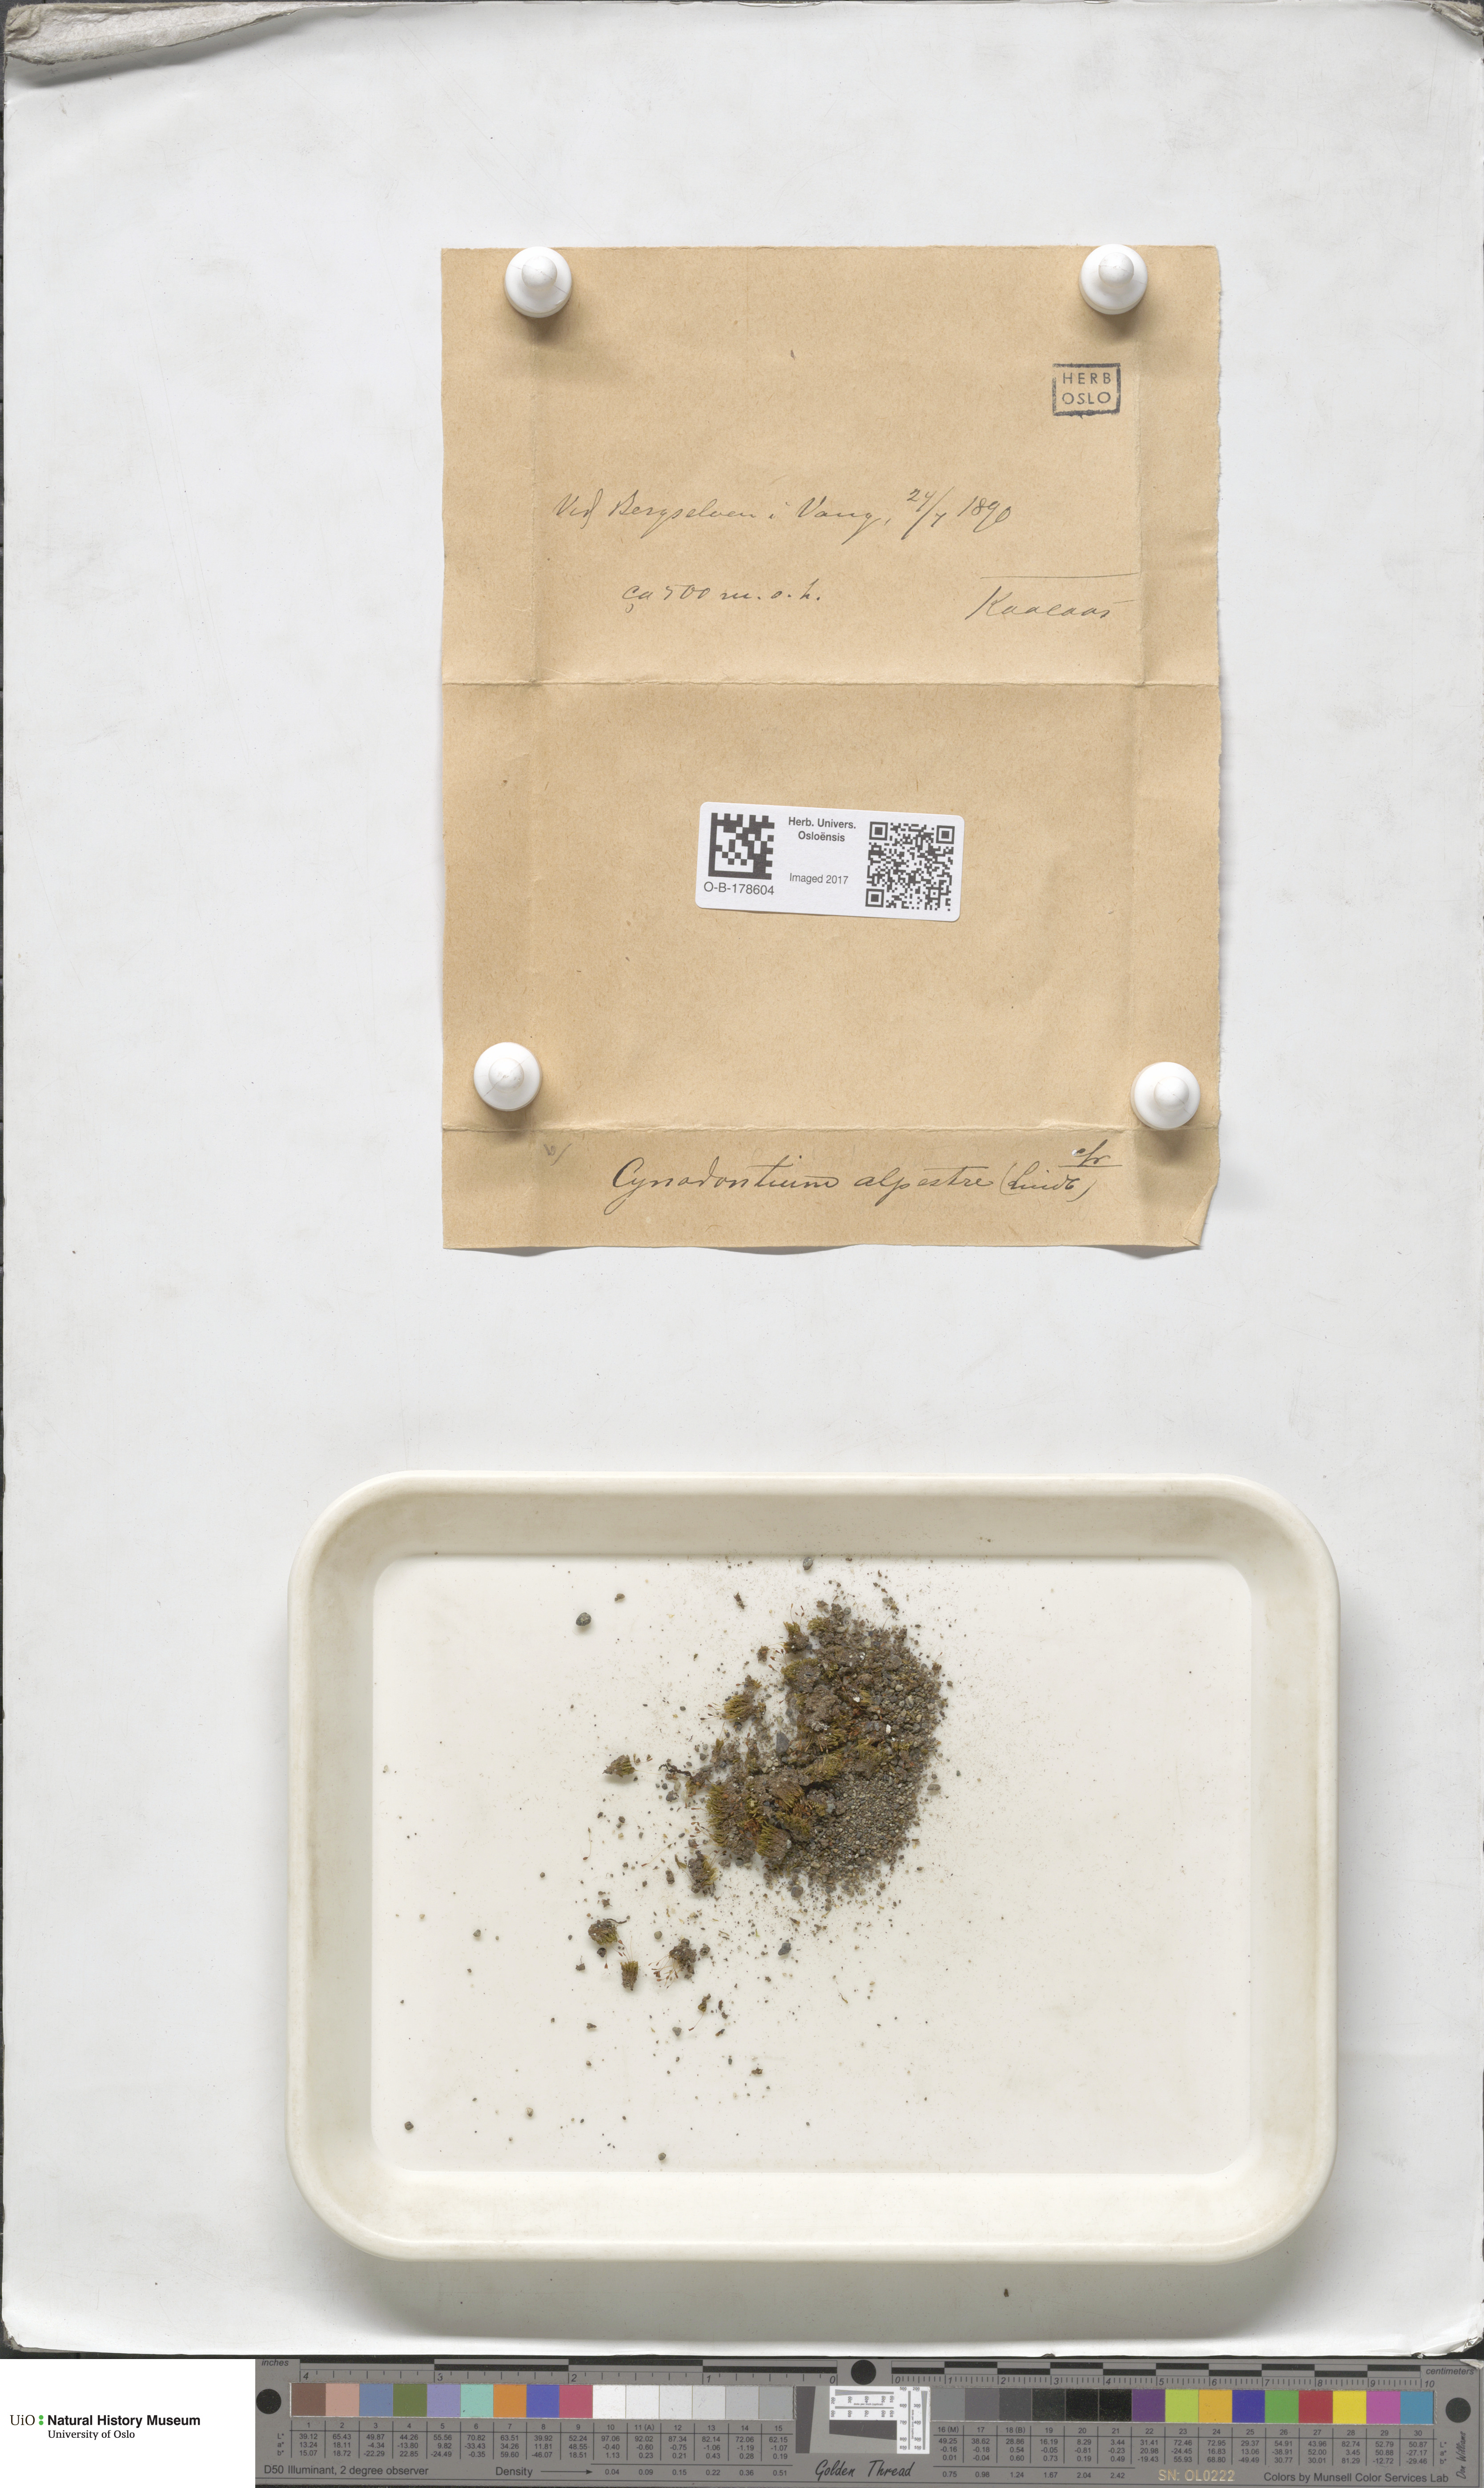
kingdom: Plantae
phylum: Bryophyta
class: Bryopsida
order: Dicranales
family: Rhabdoweisiaceae
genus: Cnestrum
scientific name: Cnestrum alpestre
